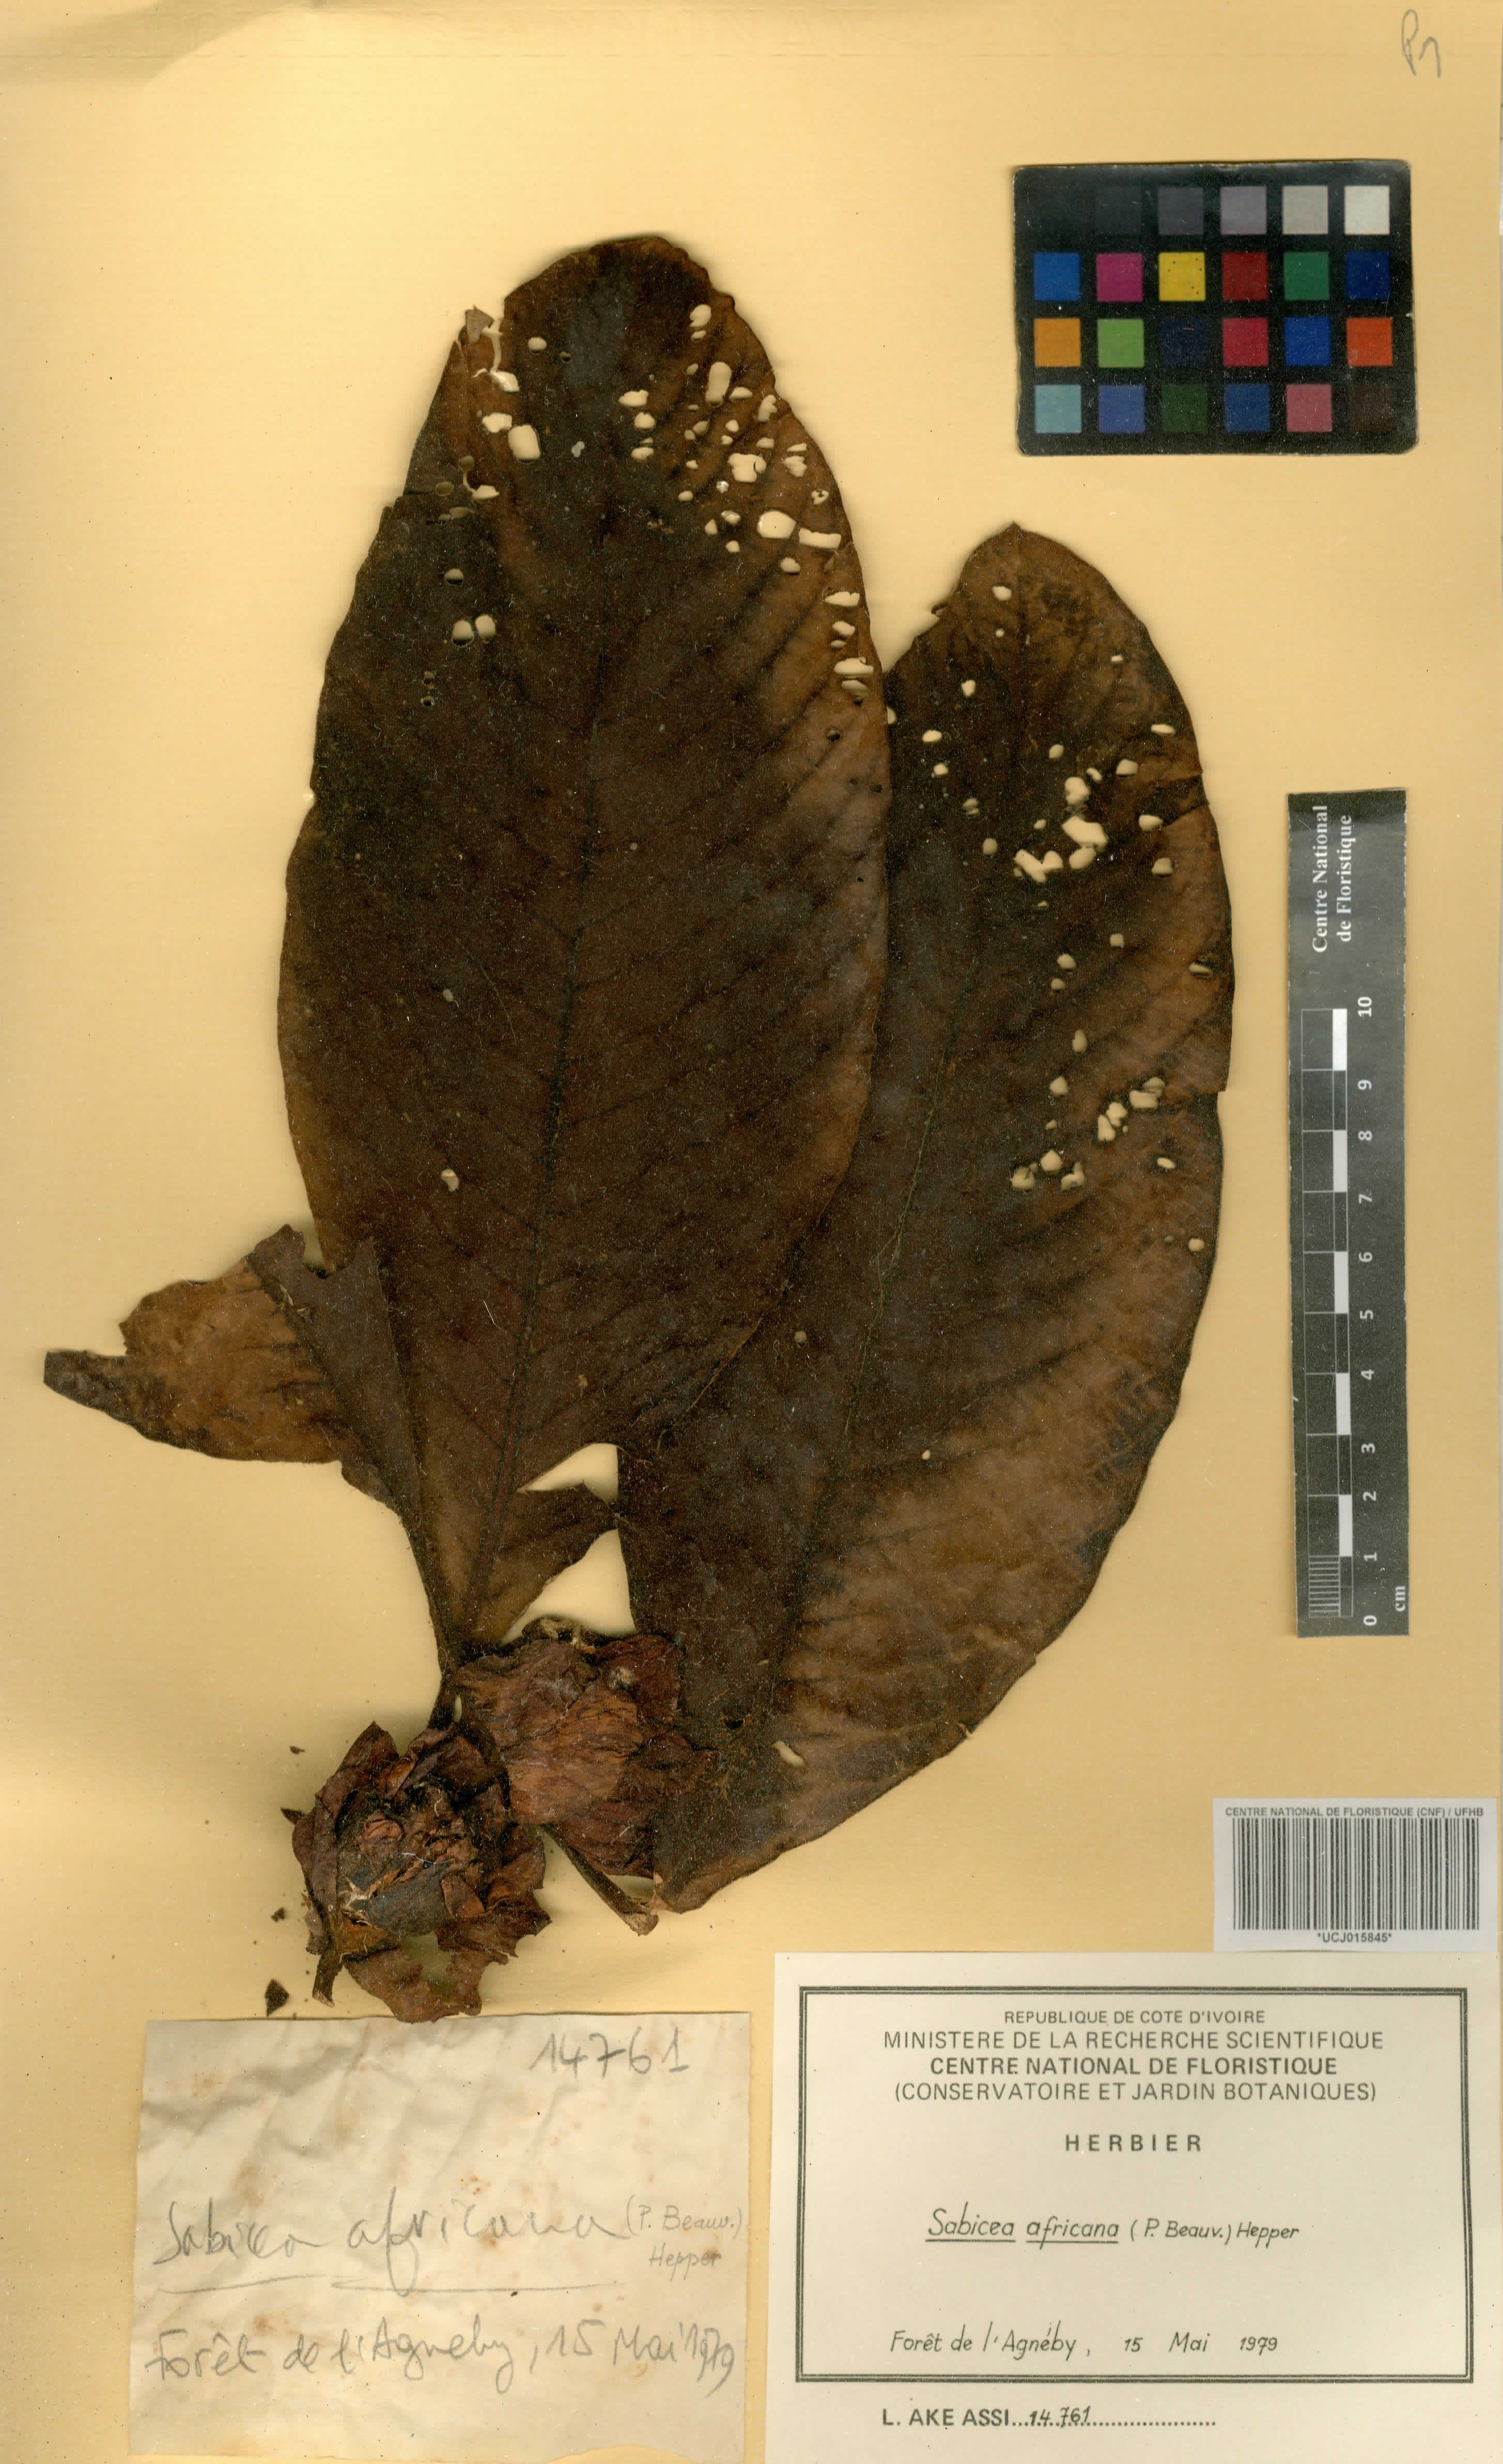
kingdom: Plantae
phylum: Tracheophyta
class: Magnoliopsida
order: Gentianales
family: Rubiaceae
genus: Stipularia
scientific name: Stipularia africana
